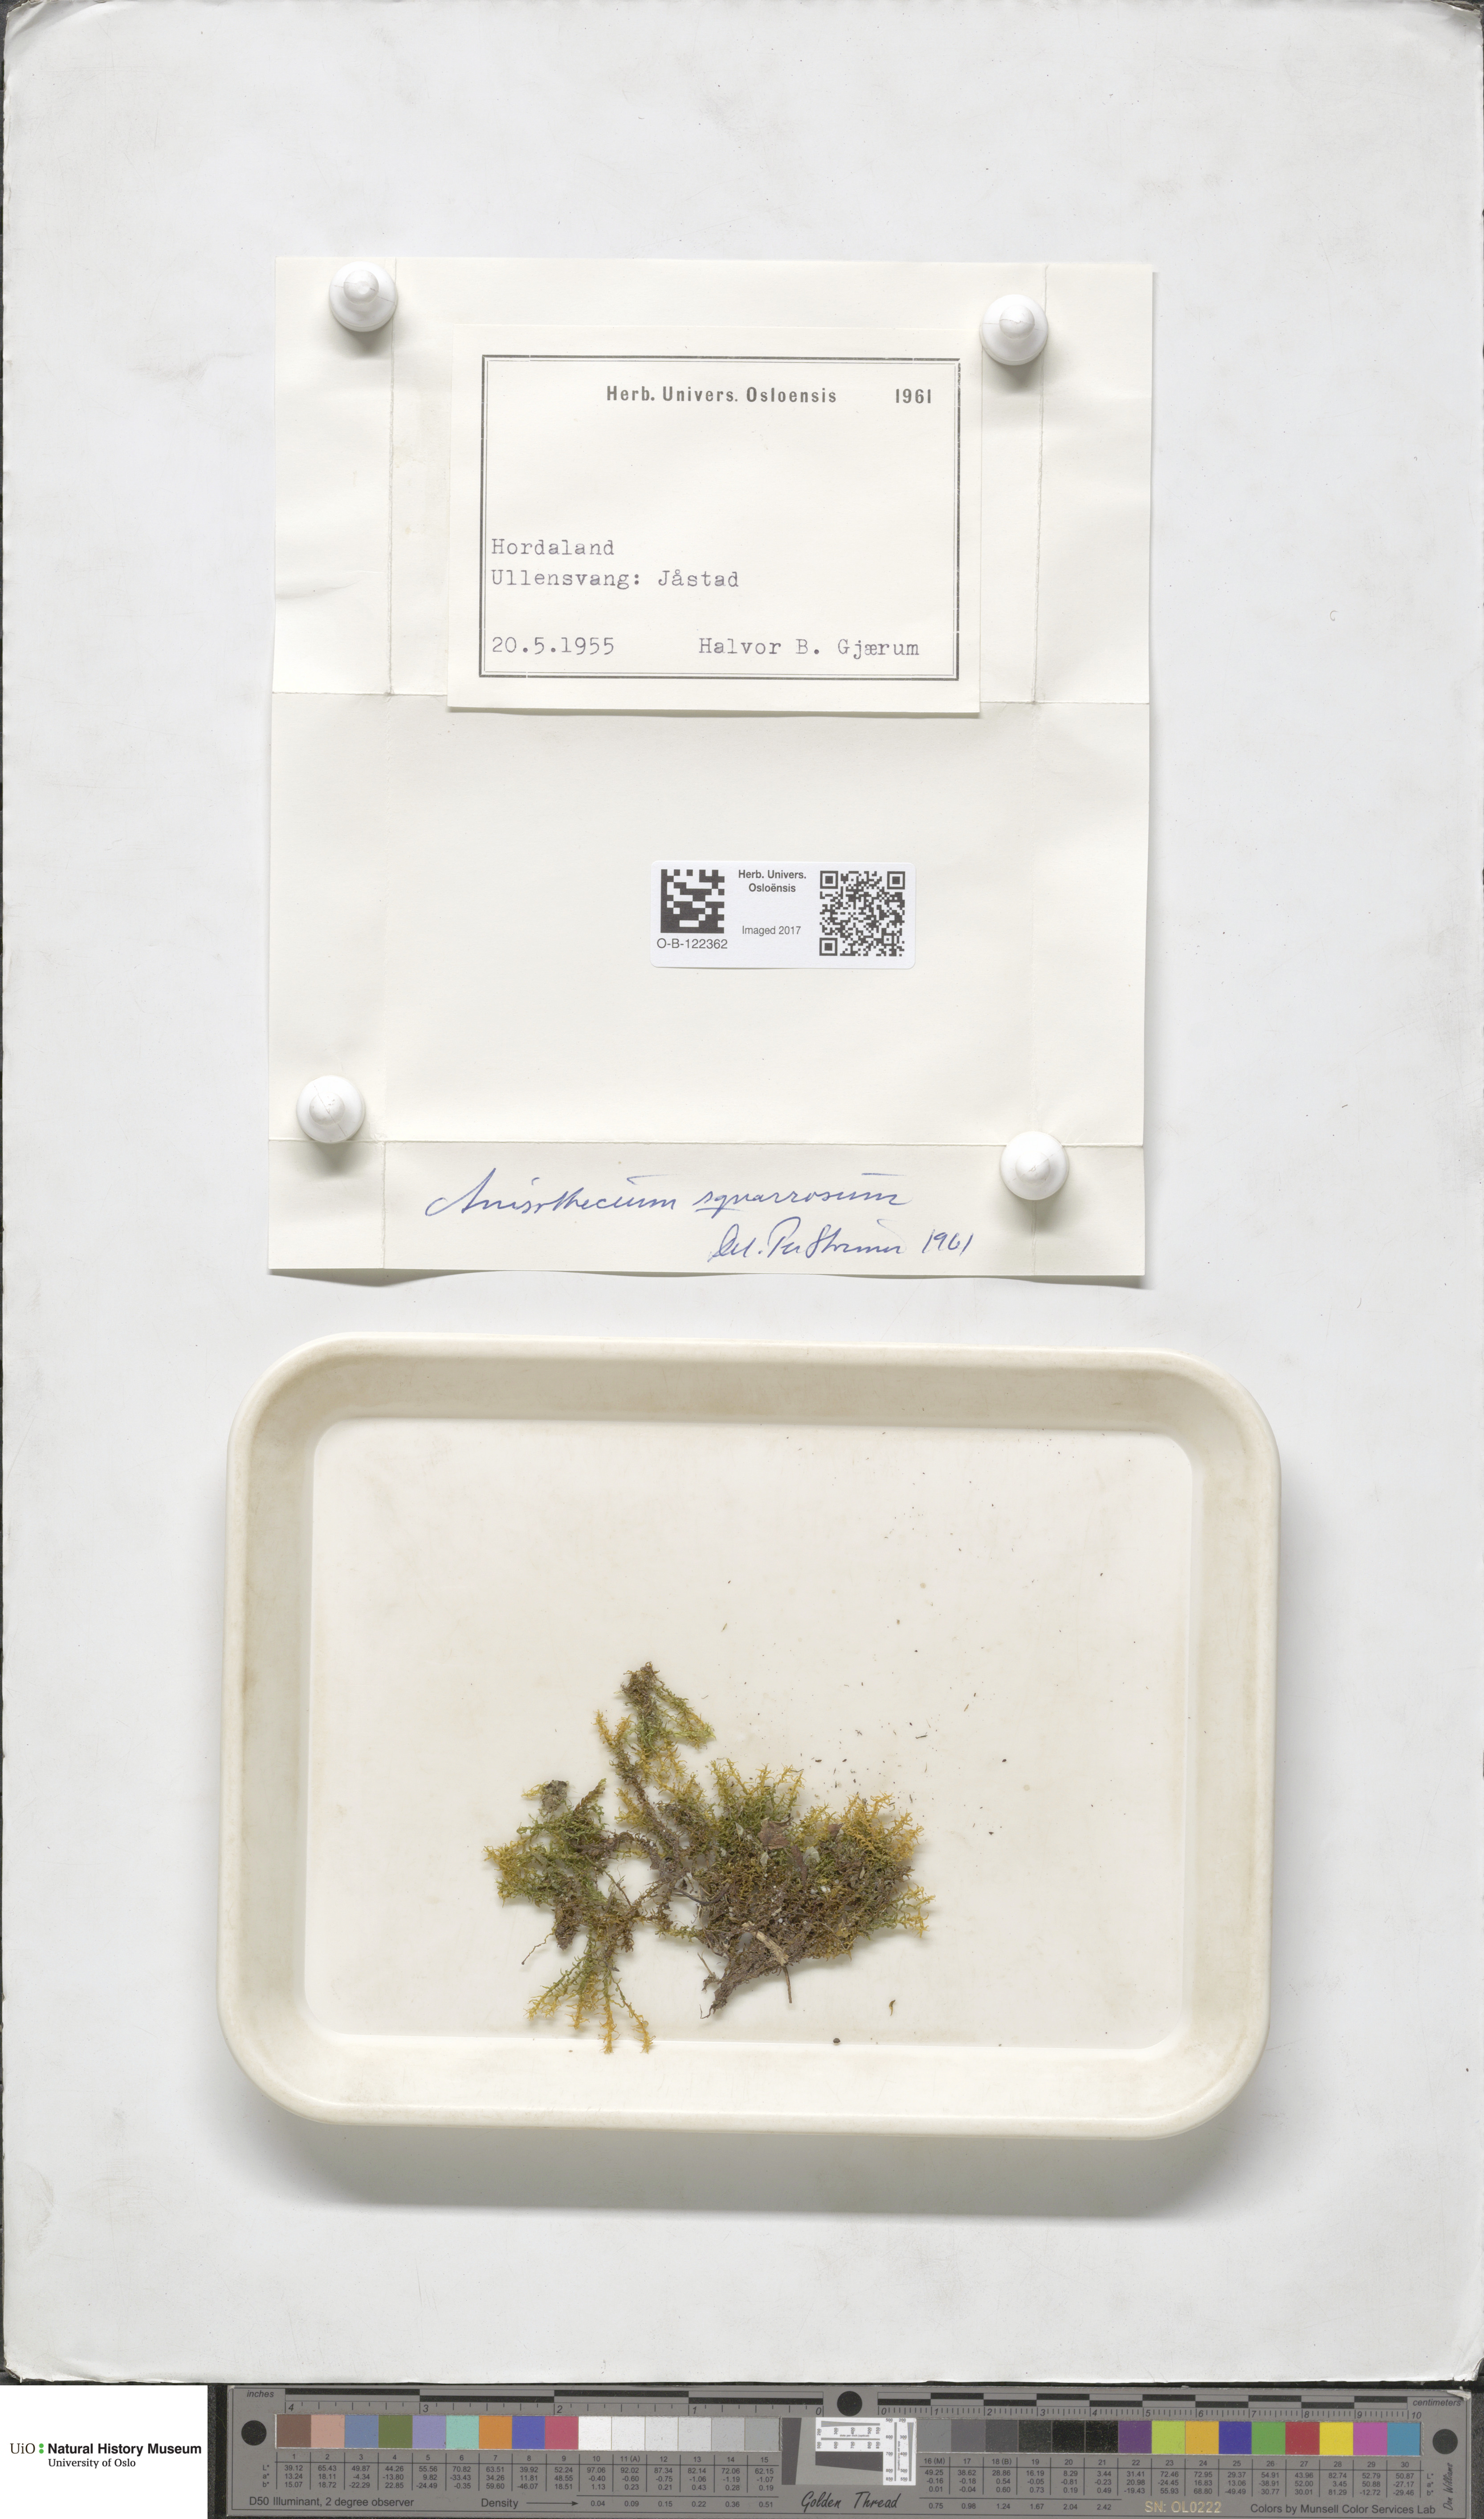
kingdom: Plantae
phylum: Bryophyta
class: Bryopsida
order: Dicranales
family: Aongstroemiaceae
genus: Diobelonella
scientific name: Diobelonella palustris
